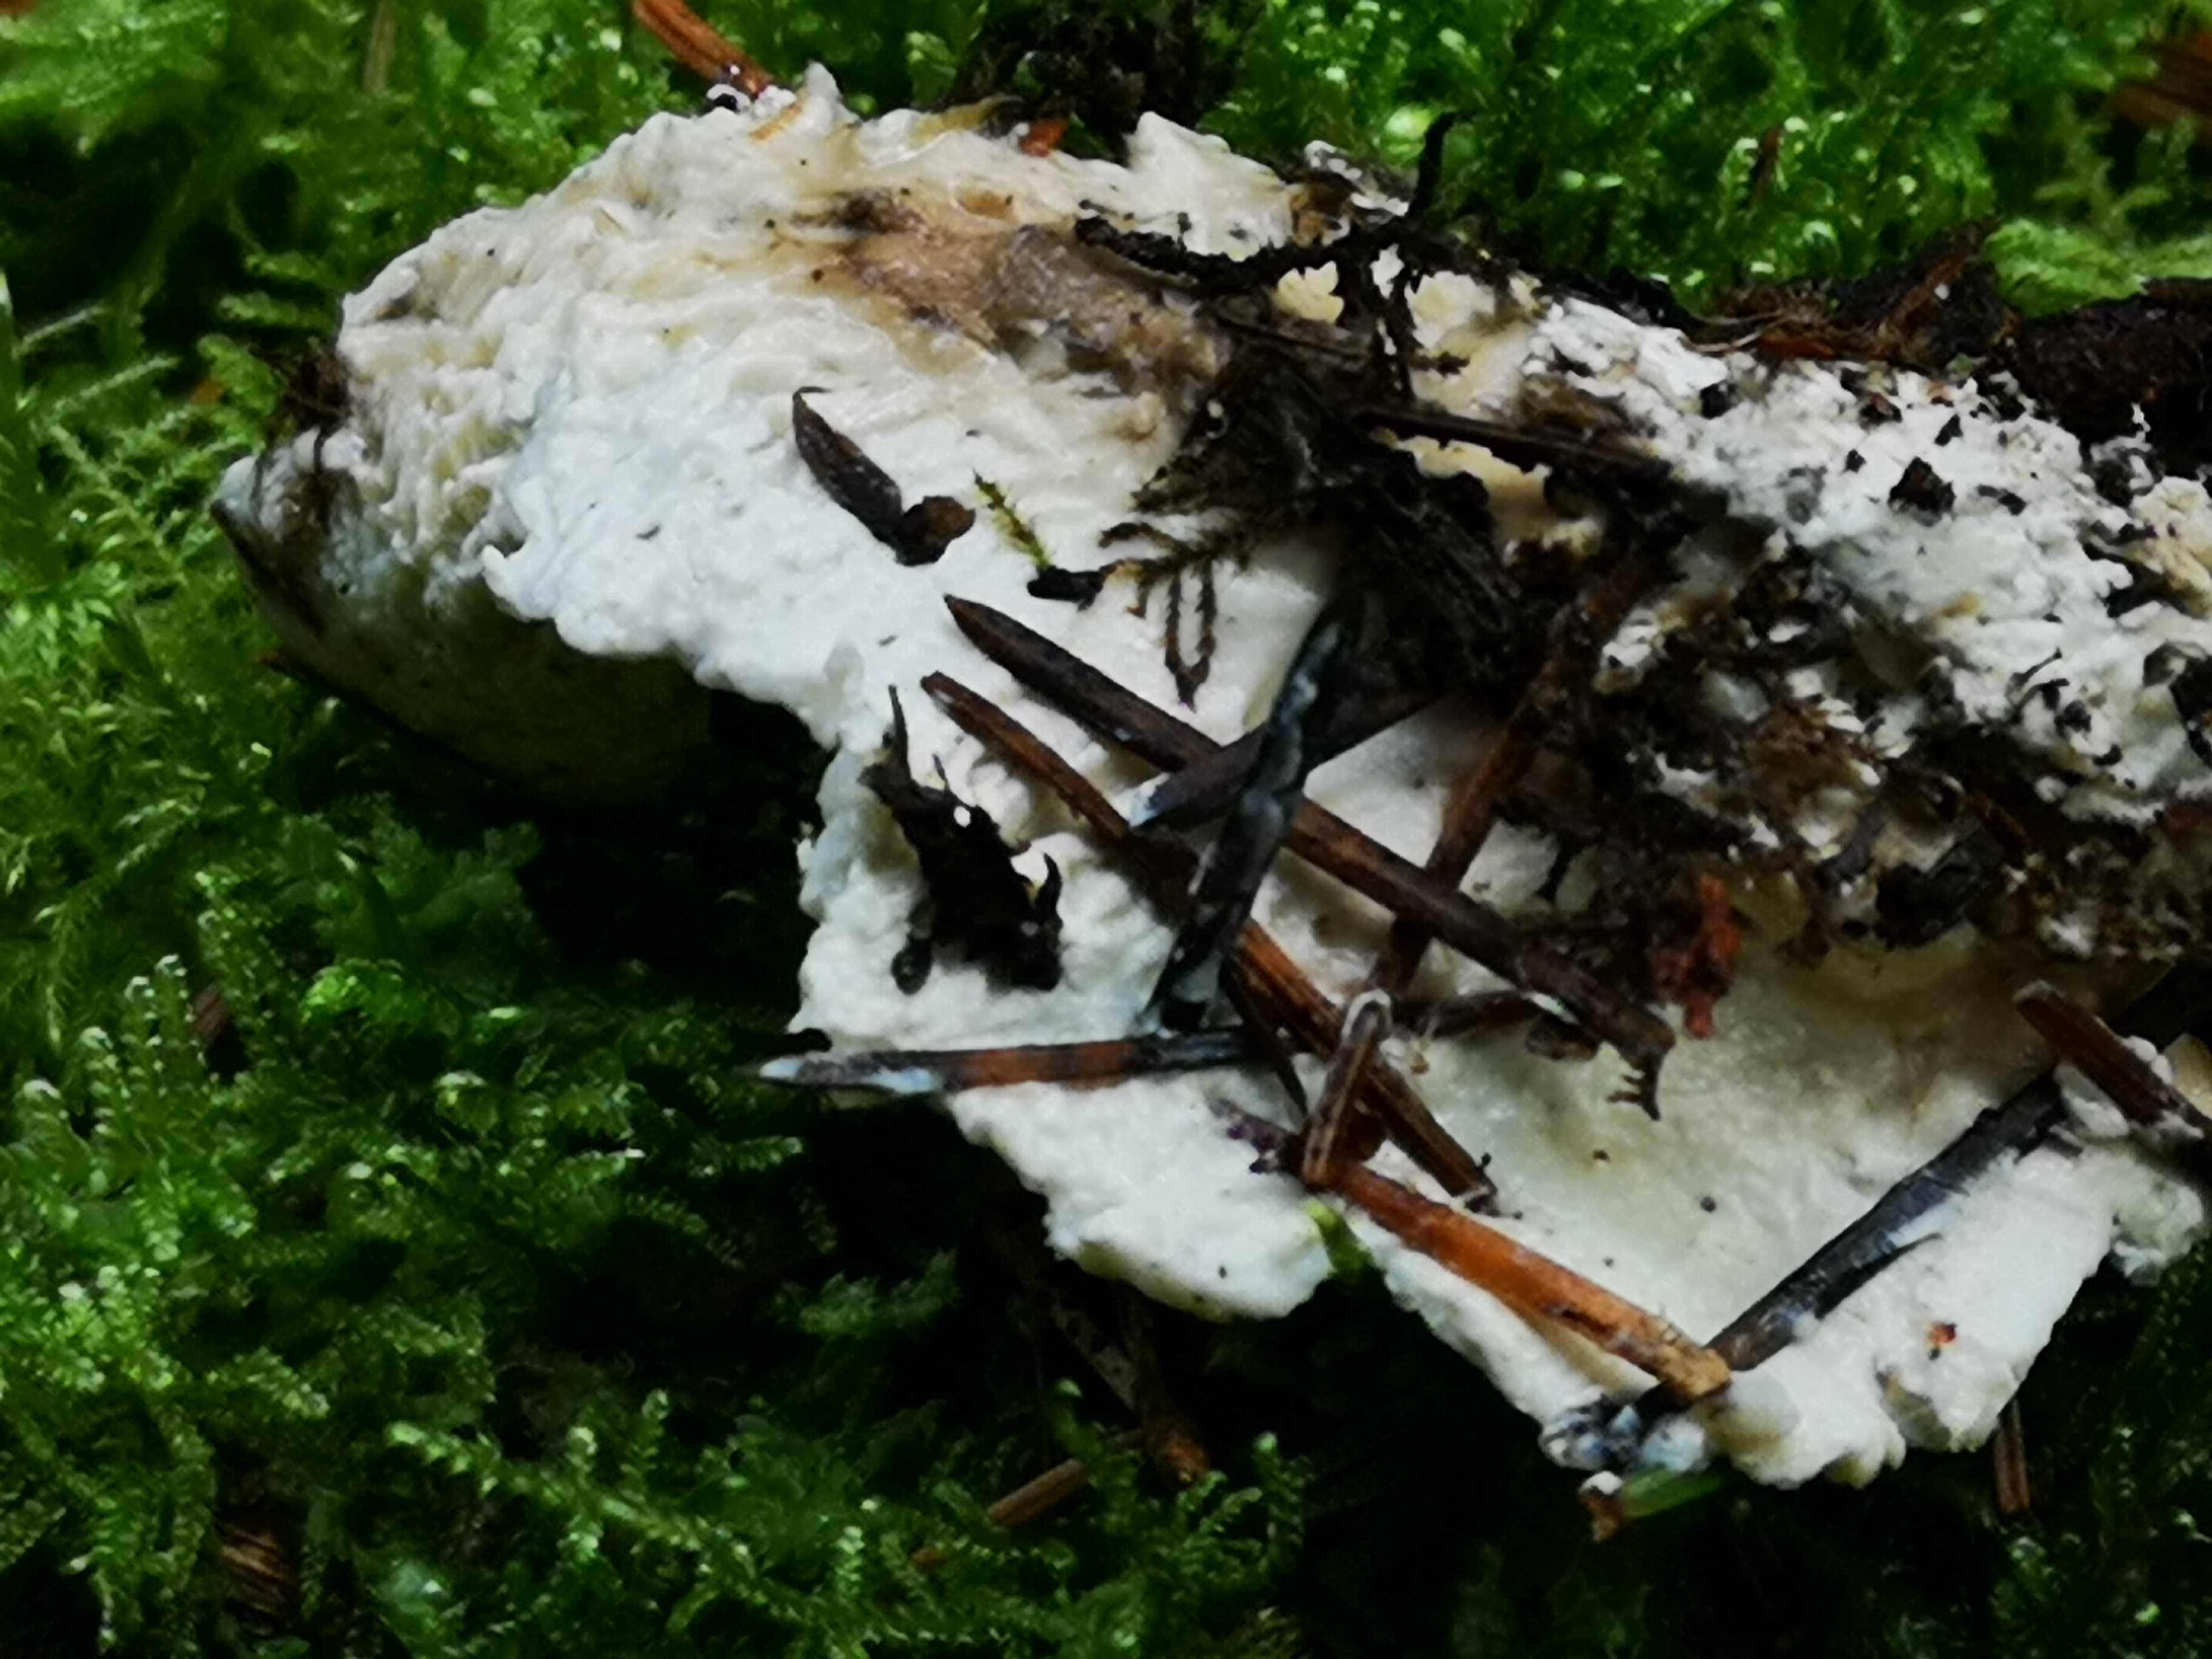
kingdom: Fungi
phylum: Basidiomycota
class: Agaricomycetes
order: Polyporales
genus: Amaropostia
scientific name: Amaropostia stiptica
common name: bitter kødporesvamp
